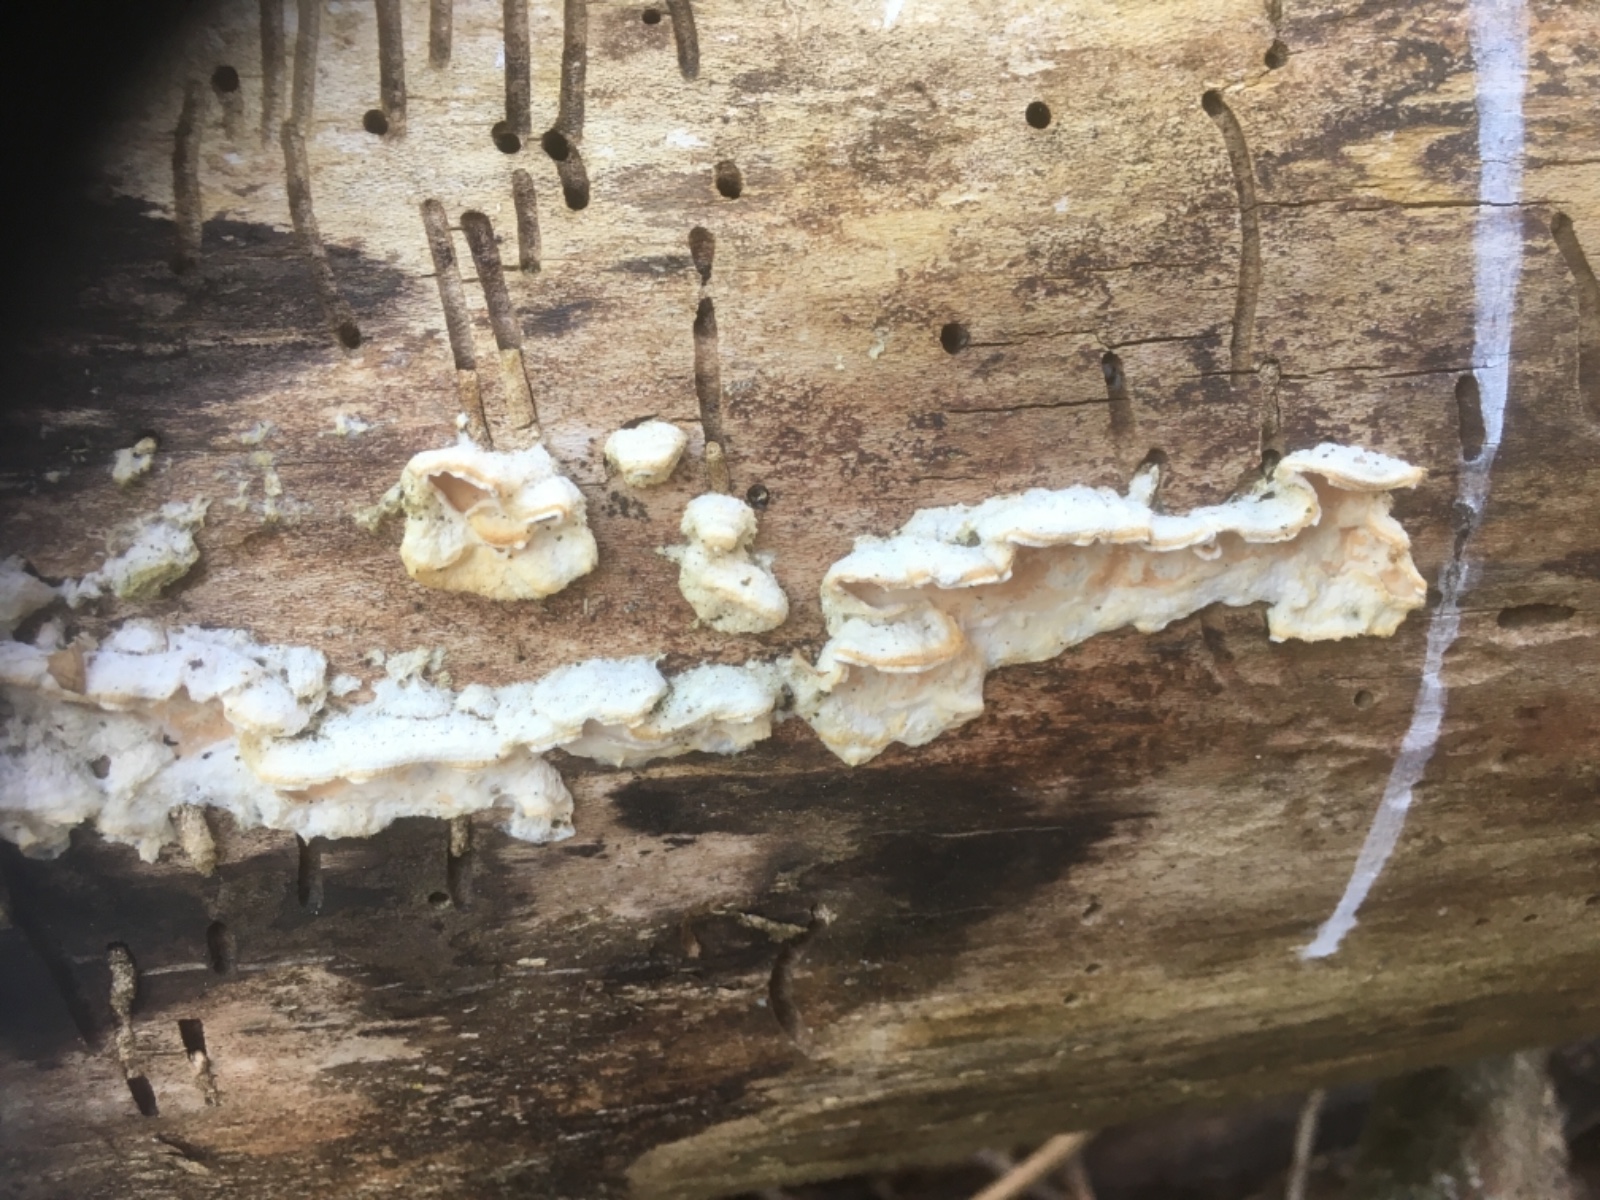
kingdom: Fungi
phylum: Basidiomycota
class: Agaricomycetes
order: Polyporales
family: Irpicaceae
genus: Byssomerulius
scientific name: Byssomerulius corium
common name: læder-åresvamp
